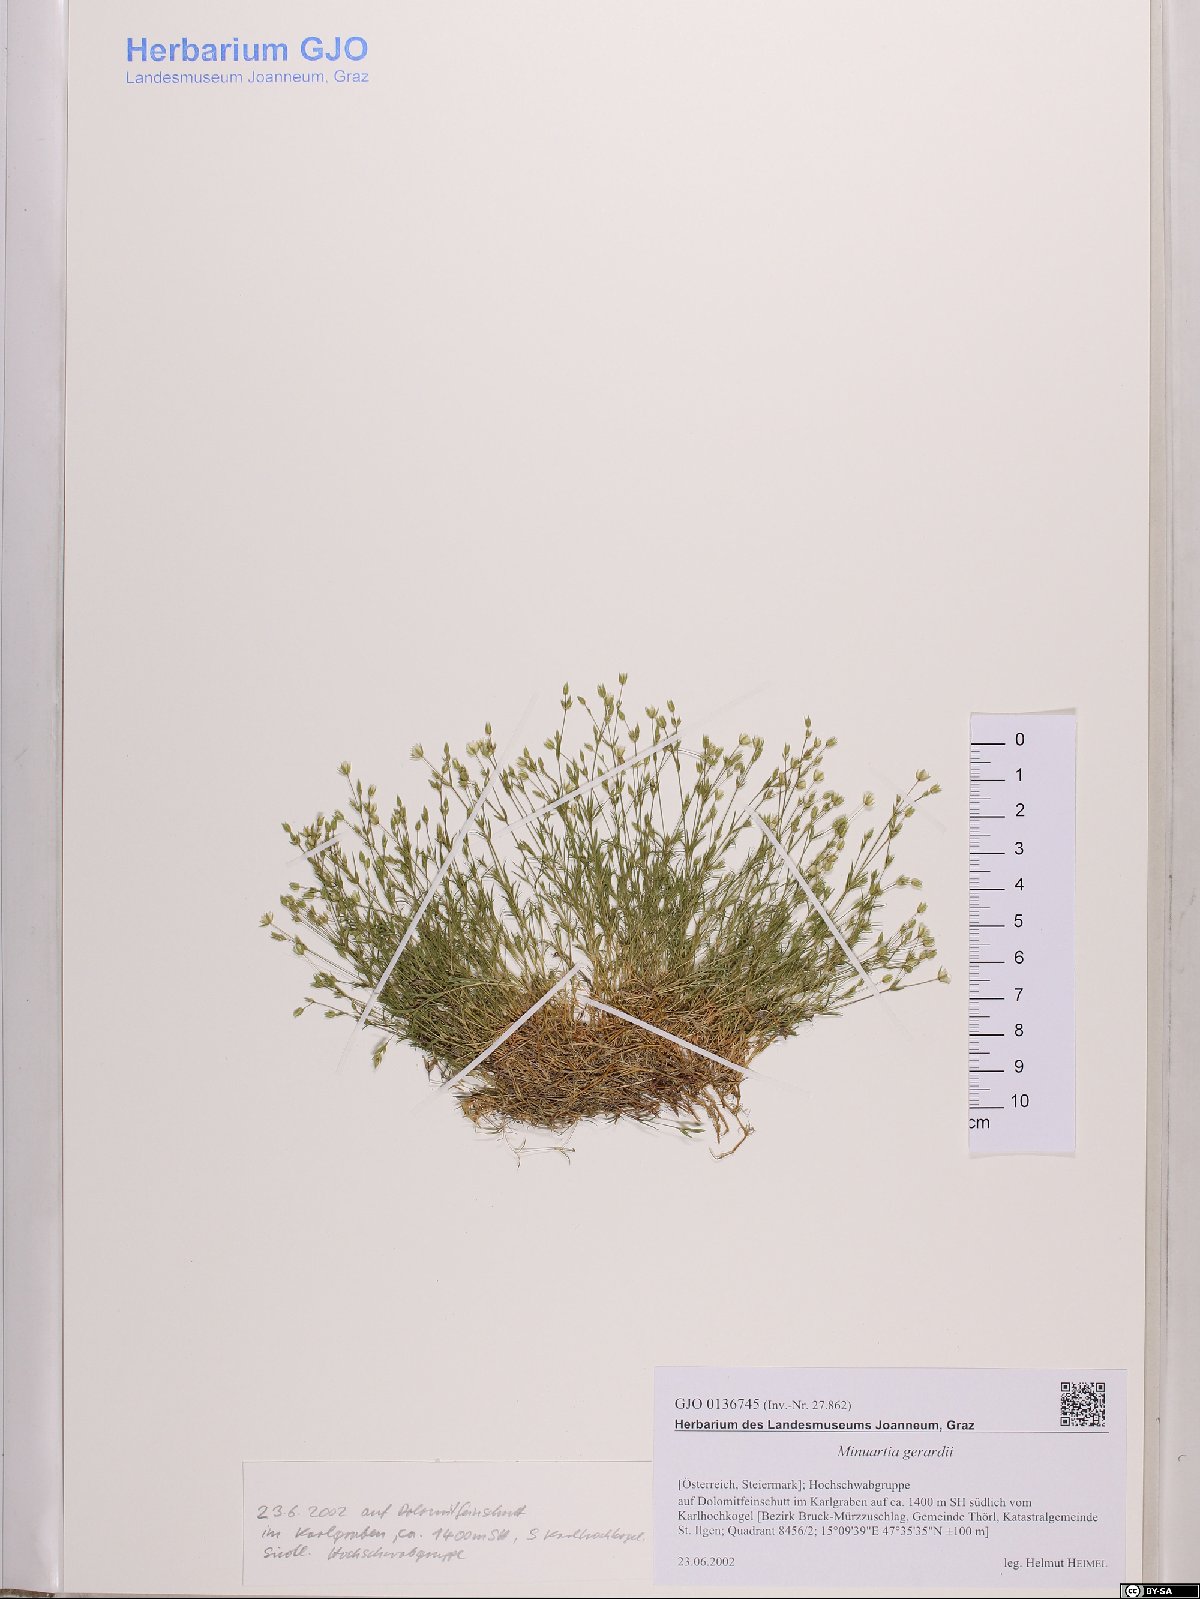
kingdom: Plantae
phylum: Tracheophyta
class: Magnoliopsida
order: Caryophyllales
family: Caryophyllaceae
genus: Sabulina
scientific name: Sabulina verna
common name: Spring sandwort
